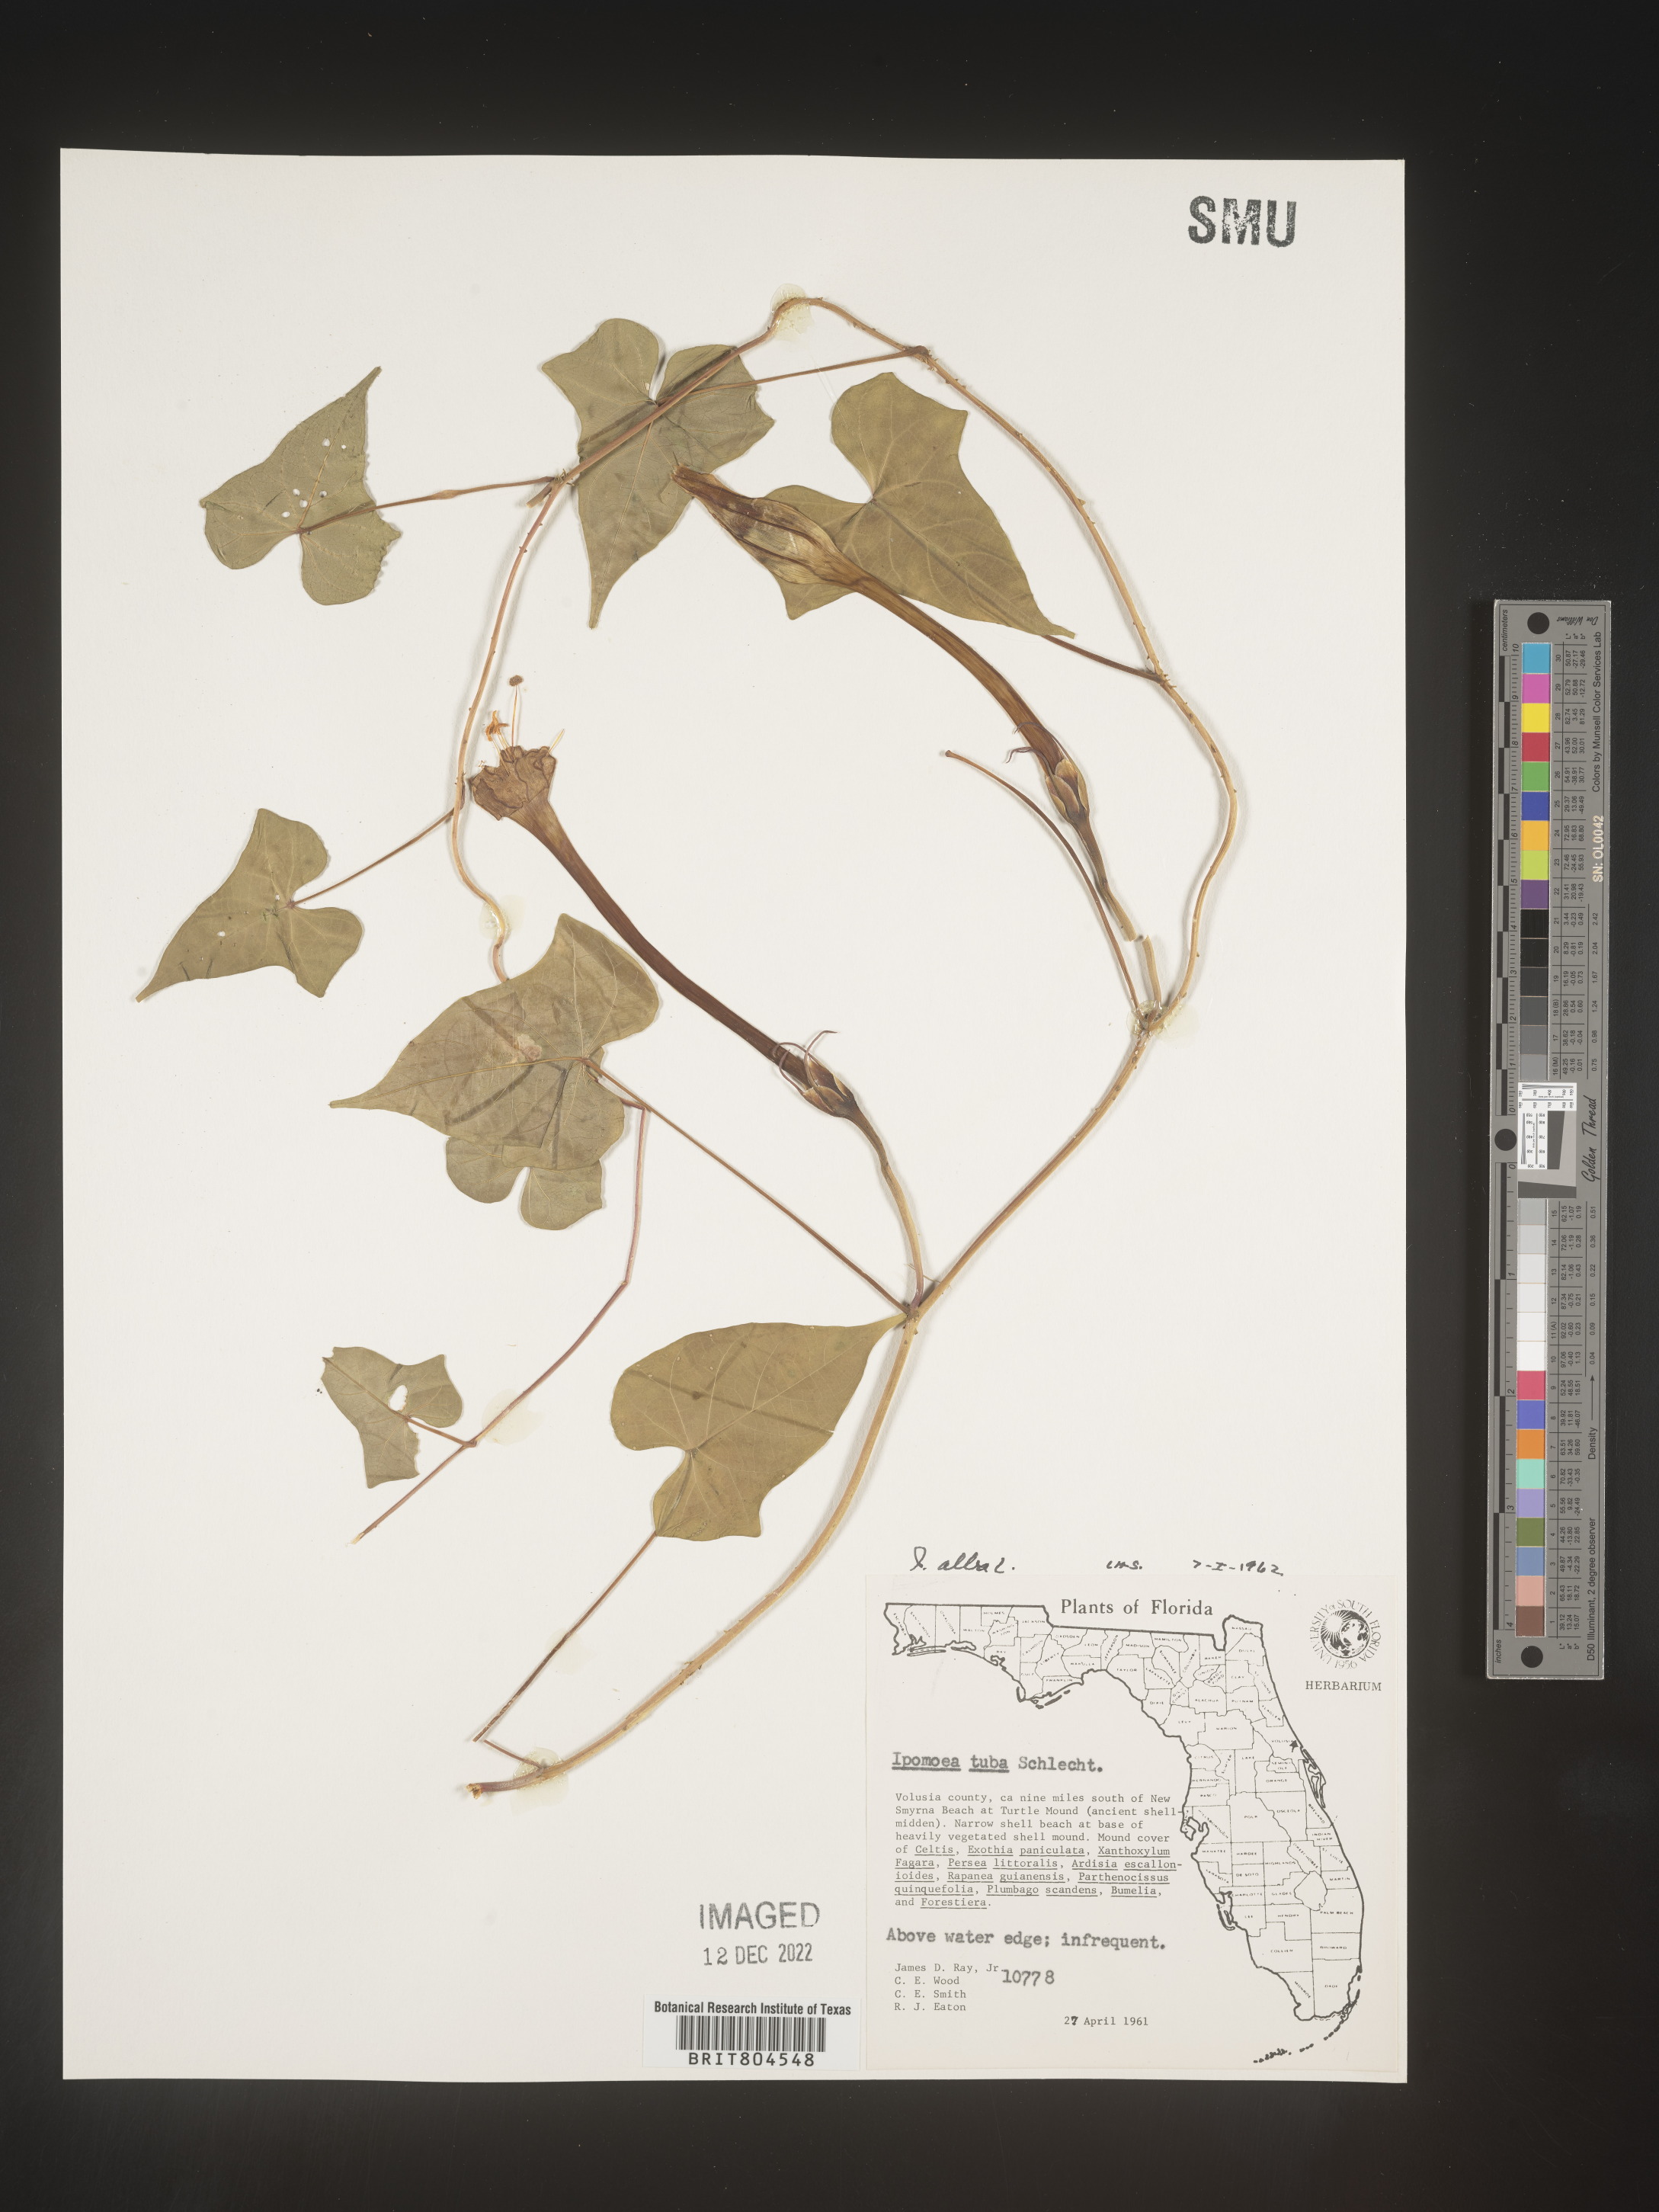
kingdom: Plantae
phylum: Tracheophyta
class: Magnoliopsida
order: Solanales
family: Convolvulaceae
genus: Ipomoea
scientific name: Ipomoea alba
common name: Moonflower
